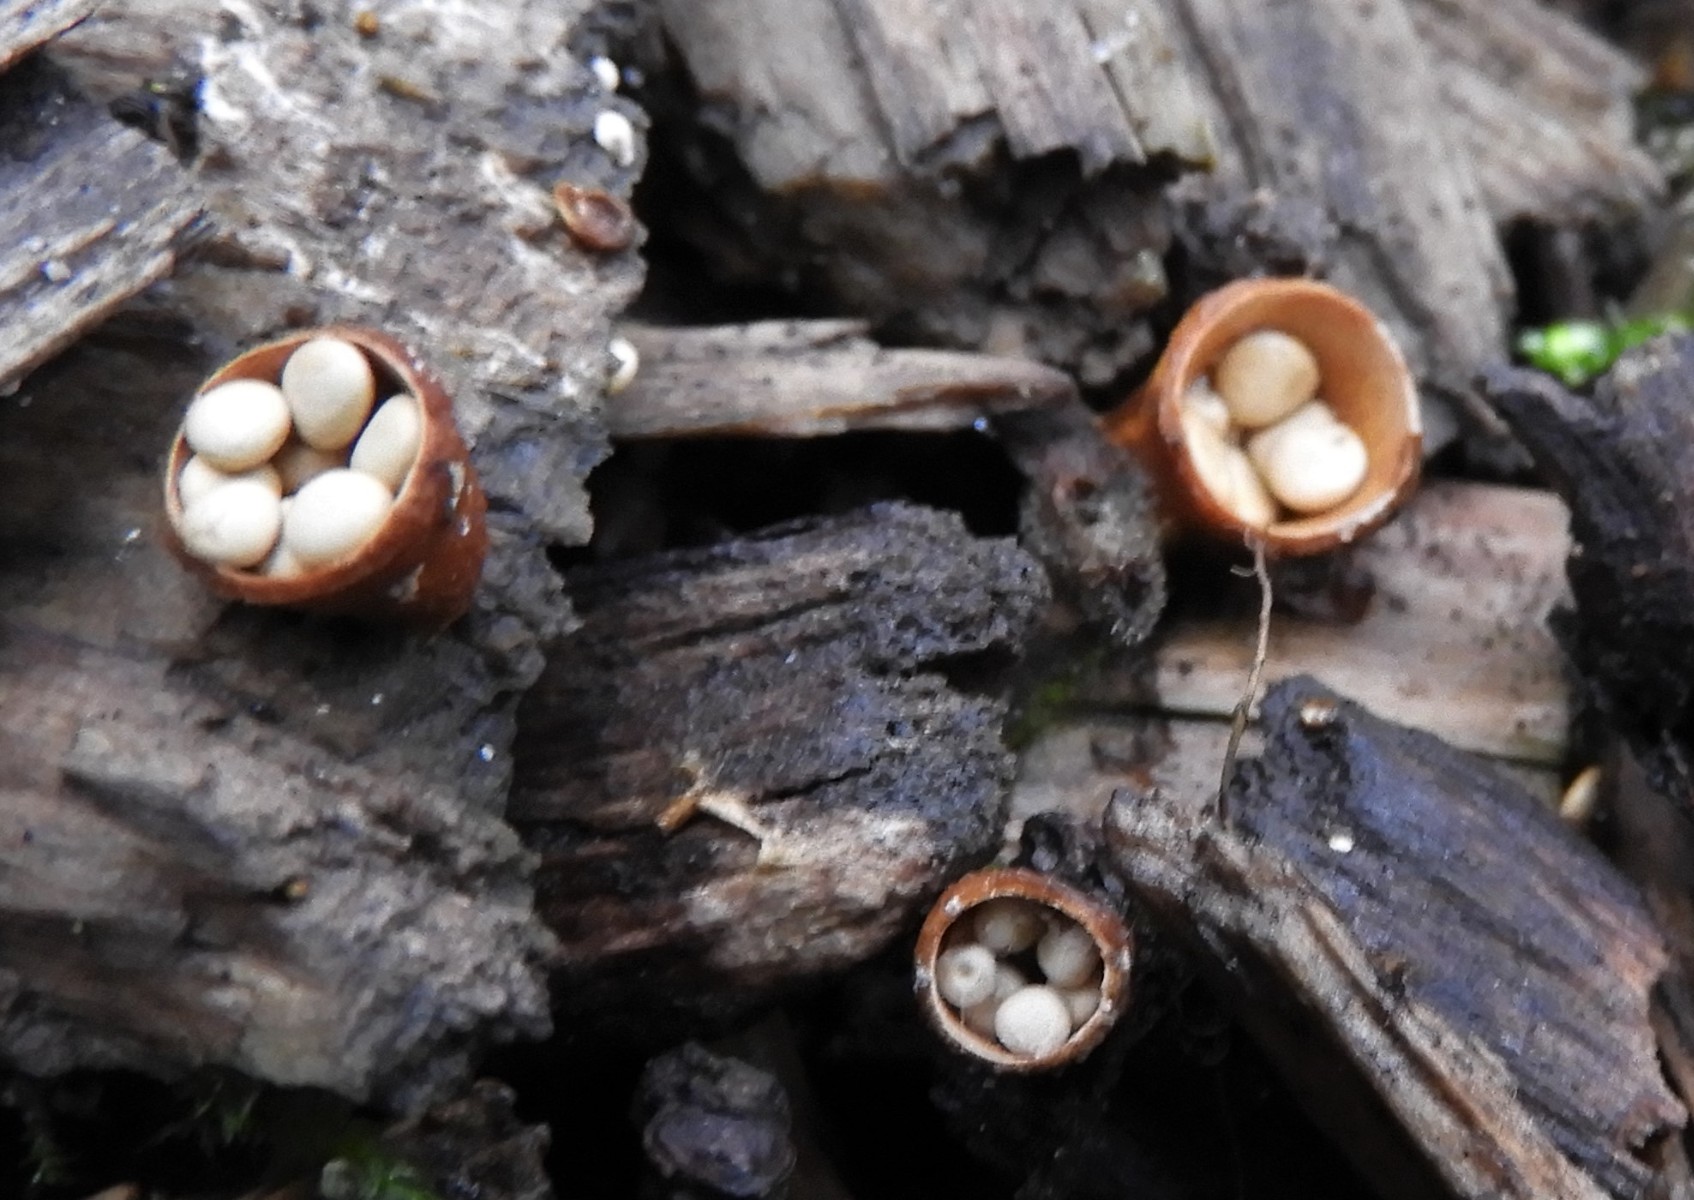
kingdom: Fungi
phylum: Basidiomycota
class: Agaricomycetes
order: Agaricales
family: Nidulariaceae
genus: Crucibulum
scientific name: Crucibulum crucibuliforme
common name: krukkesvamp
